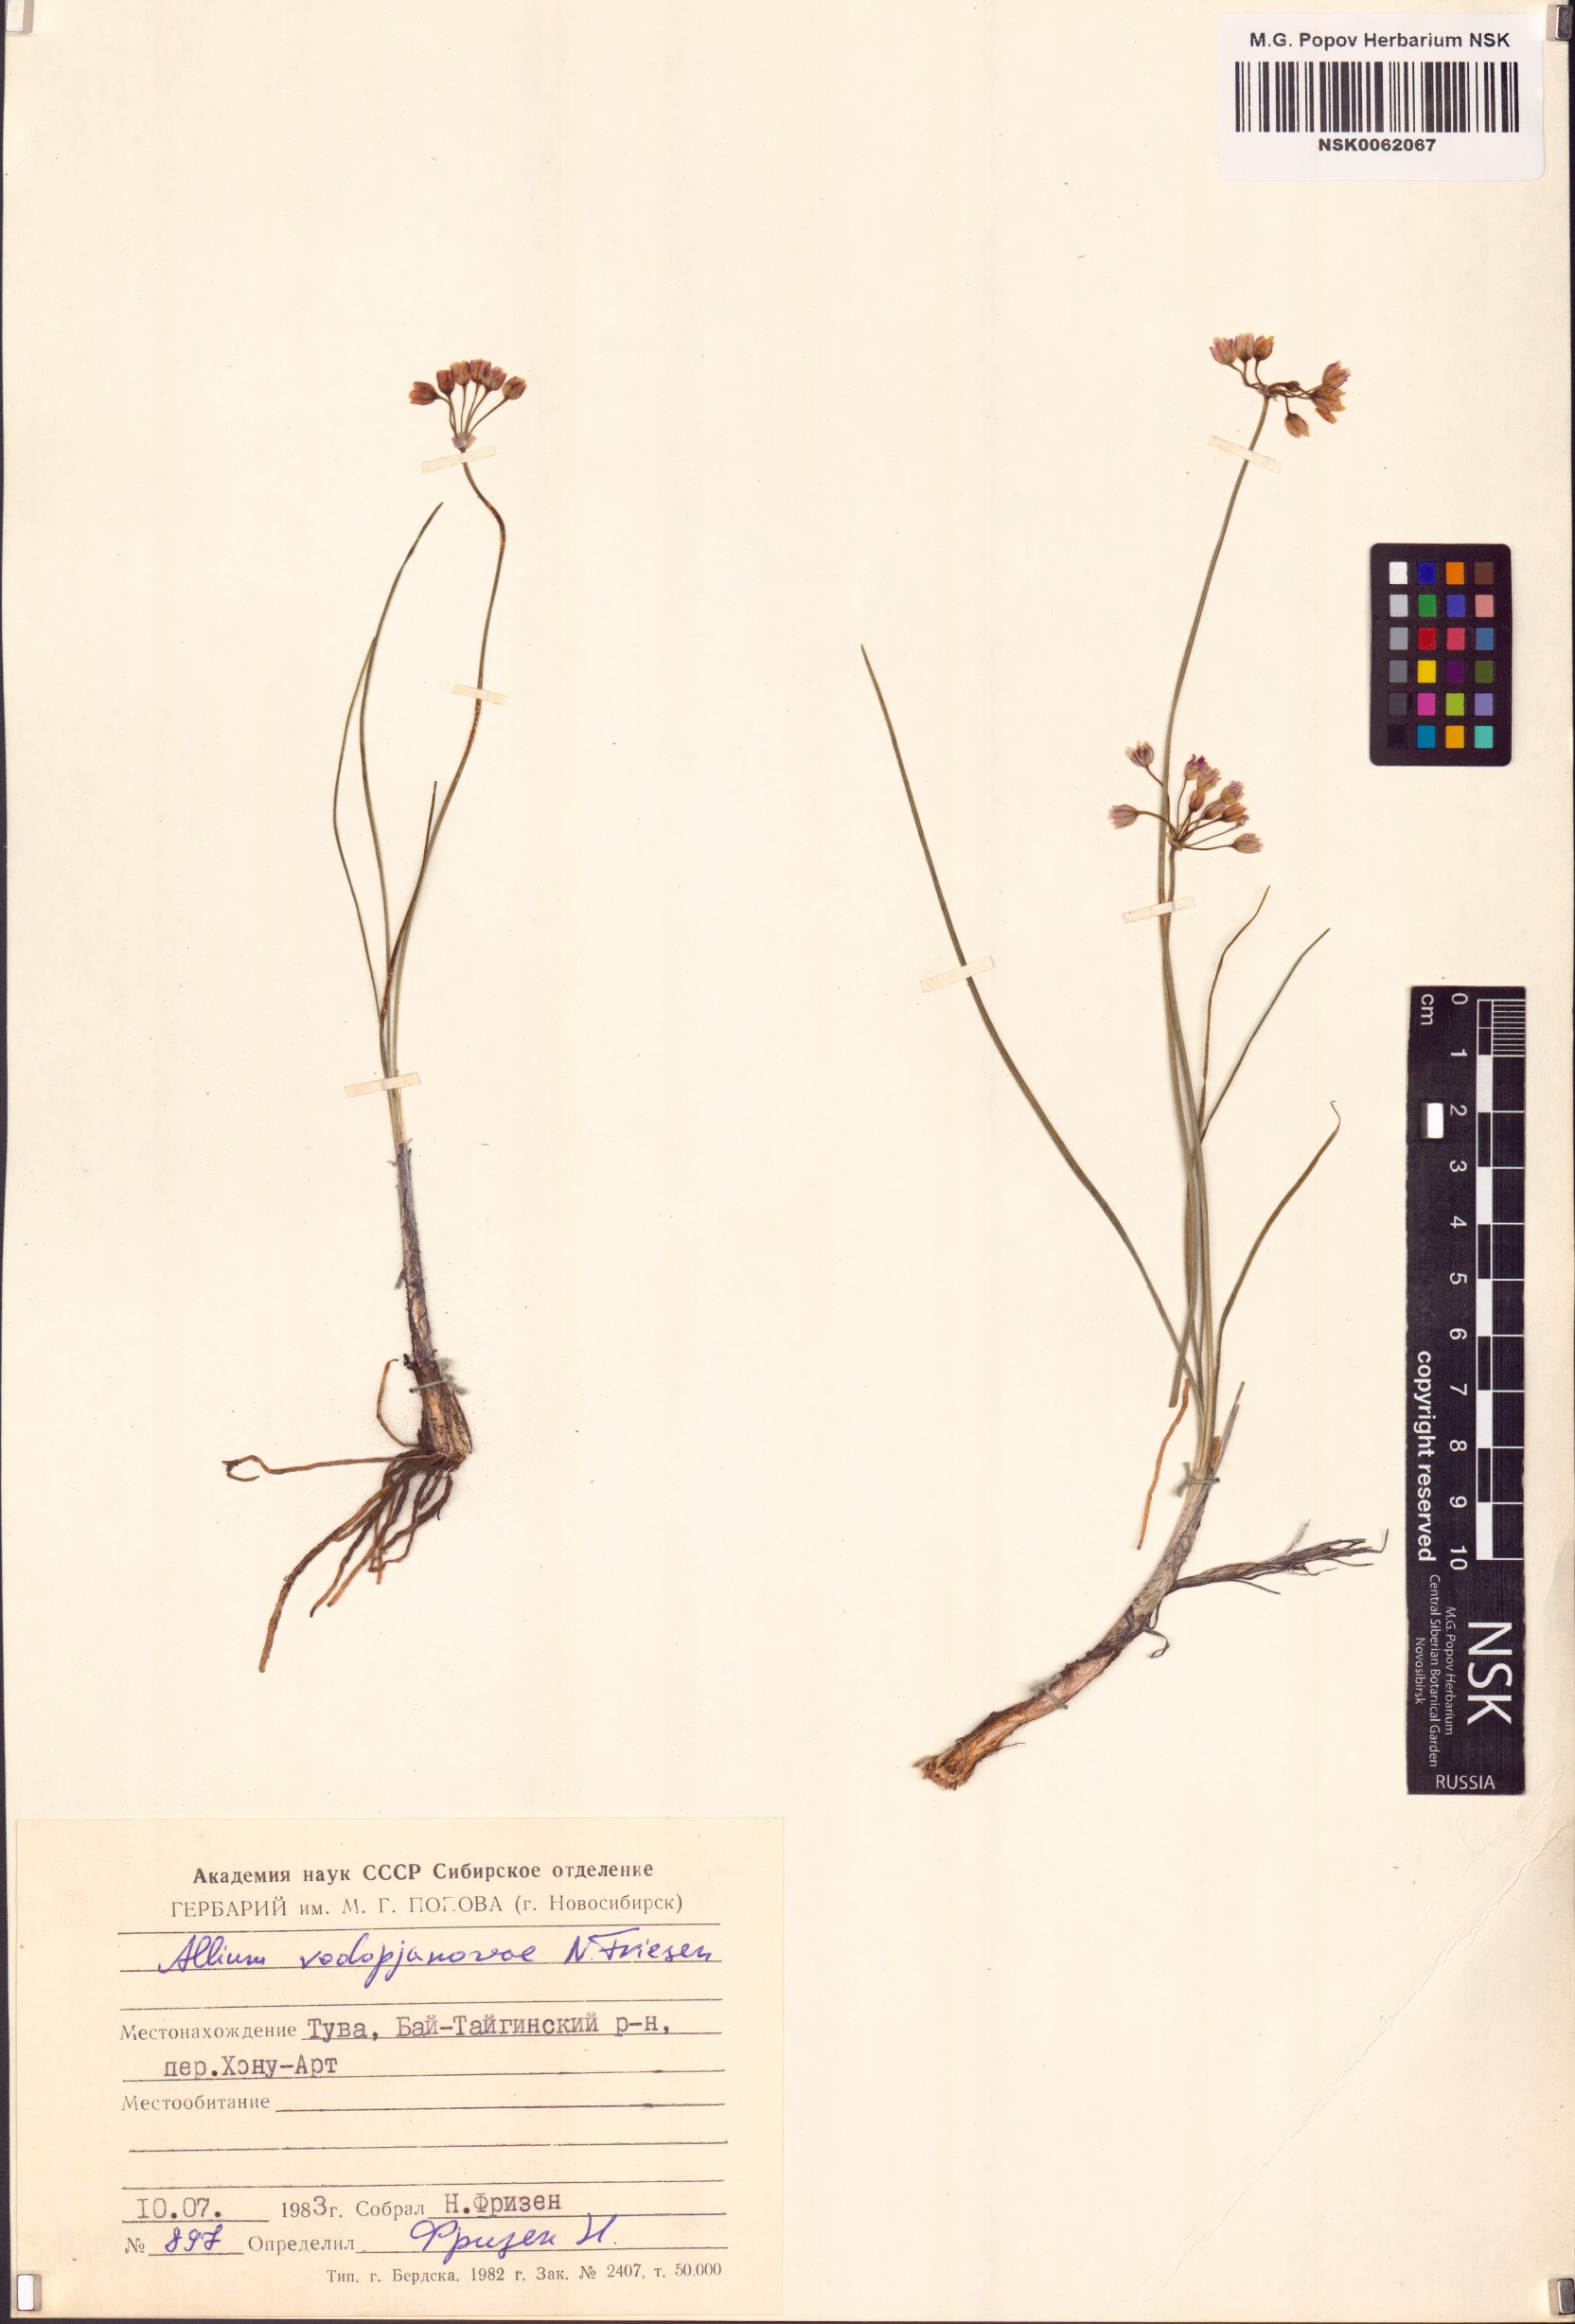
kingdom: Plantae
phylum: Tracheophyta
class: Liliopsida
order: Asparagales
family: Amaryllidaceae
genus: Allium
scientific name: Allium vodopjanovae
